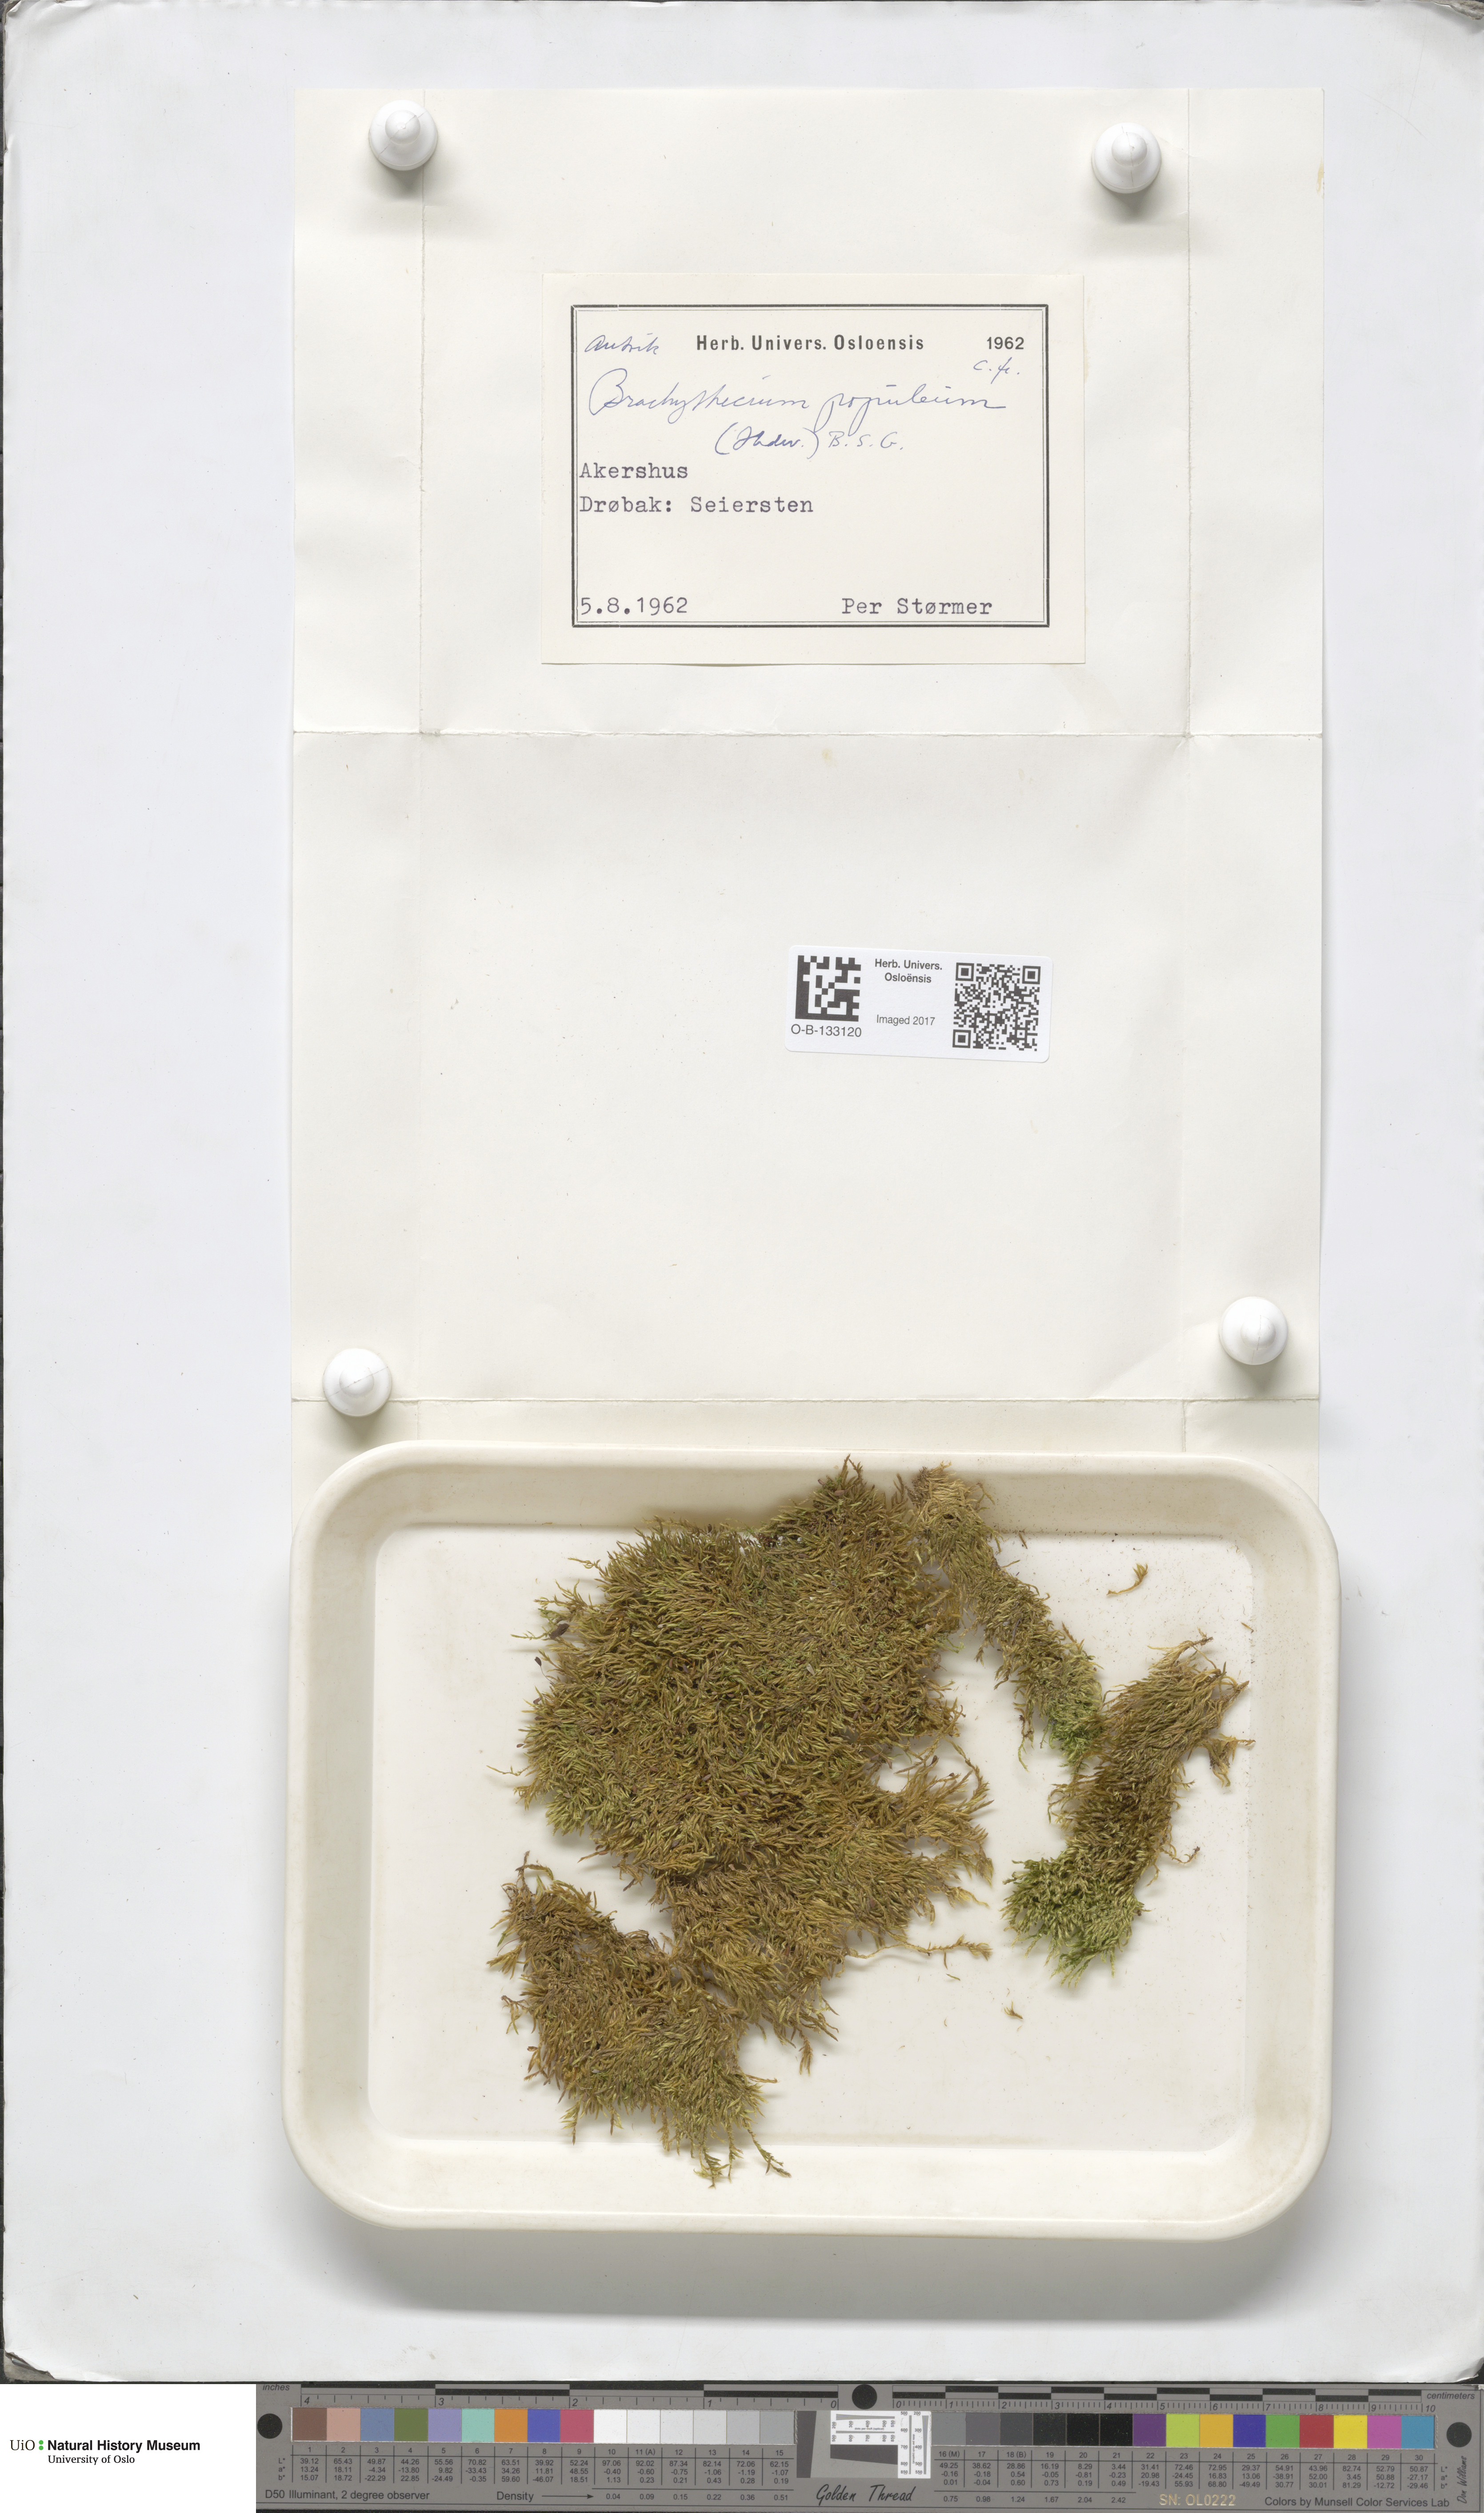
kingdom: Plantae
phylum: Bryophyta
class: Bryopsida
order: Hypnales
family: Brachytheciaceae
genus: Sciuro-hypnum
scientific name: Sciuro-hypnum plumosum
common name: Rusty feather-moss
